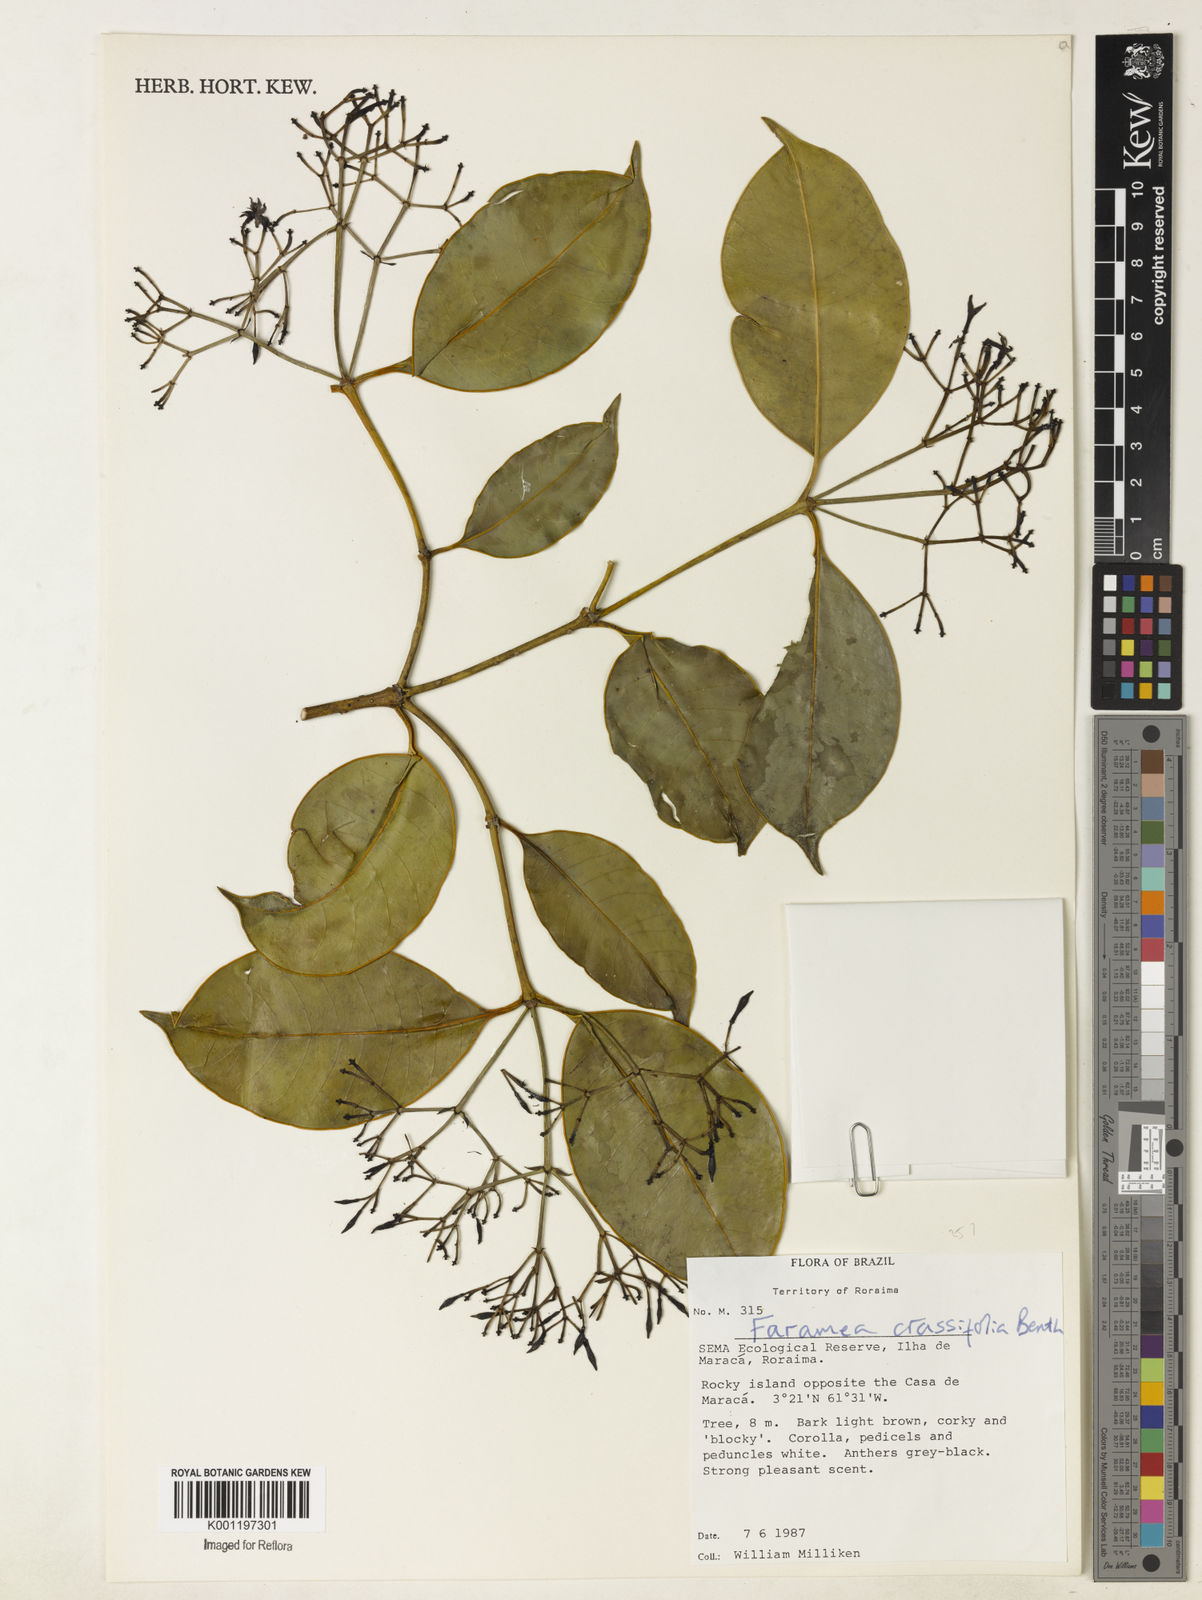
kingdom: Plantae
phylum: Tracheophyta
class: Magnoliopsida
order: Gentianales
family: Rubiaceae
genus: Faramea
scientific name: Faramea crassifolia
